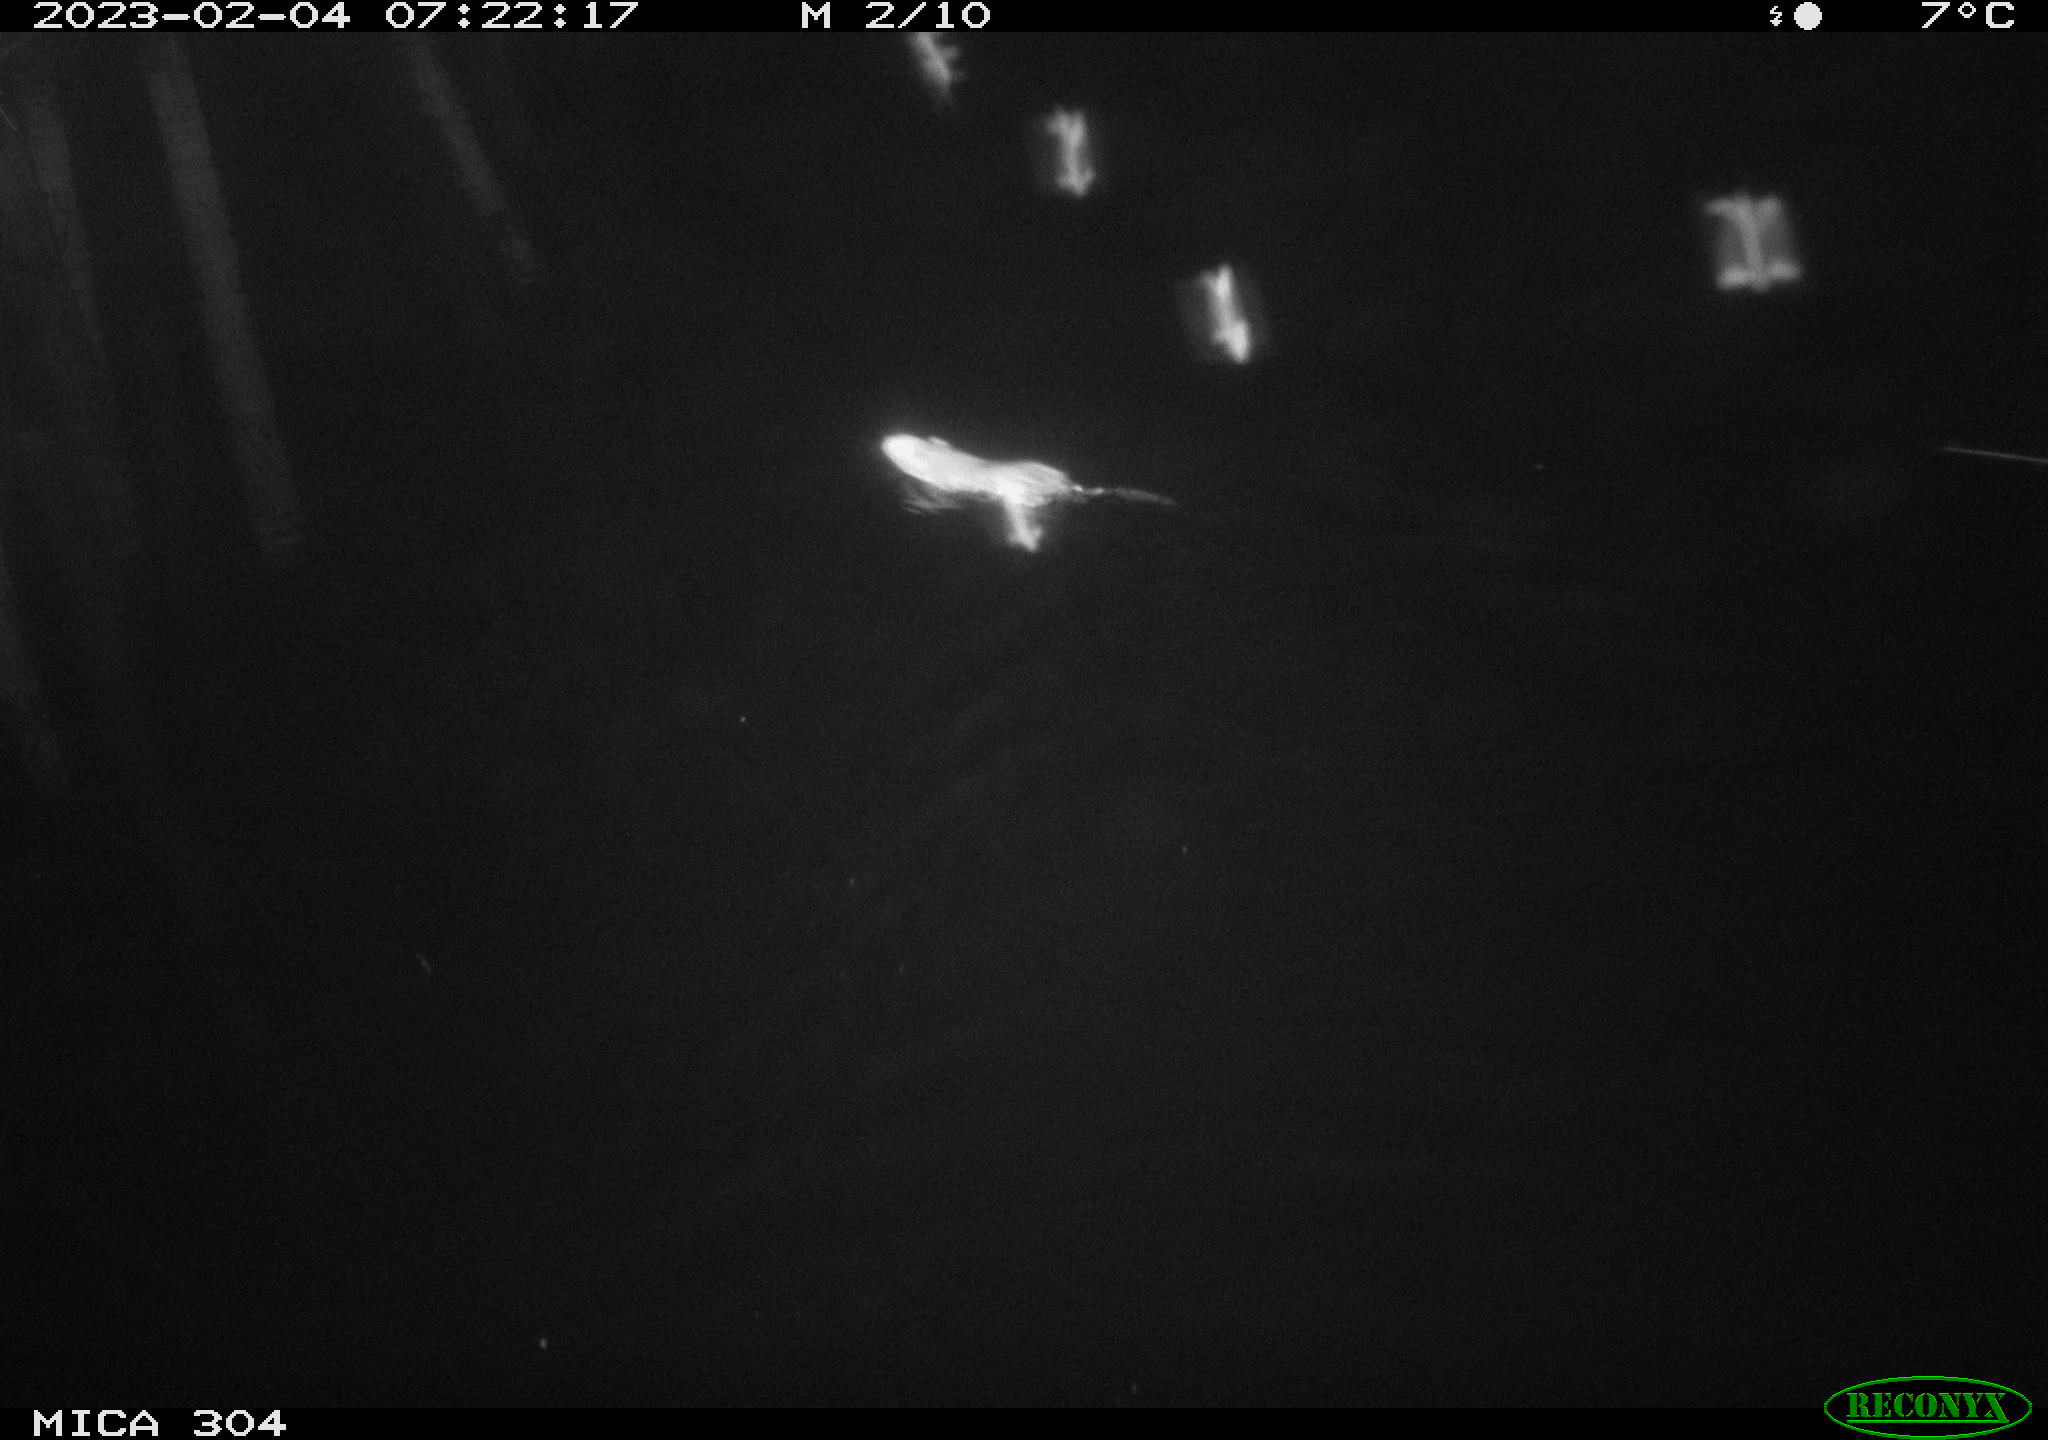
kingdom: Animalia
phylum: Chordata
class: Mammalia
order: Rodentia
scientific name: Rodentia
